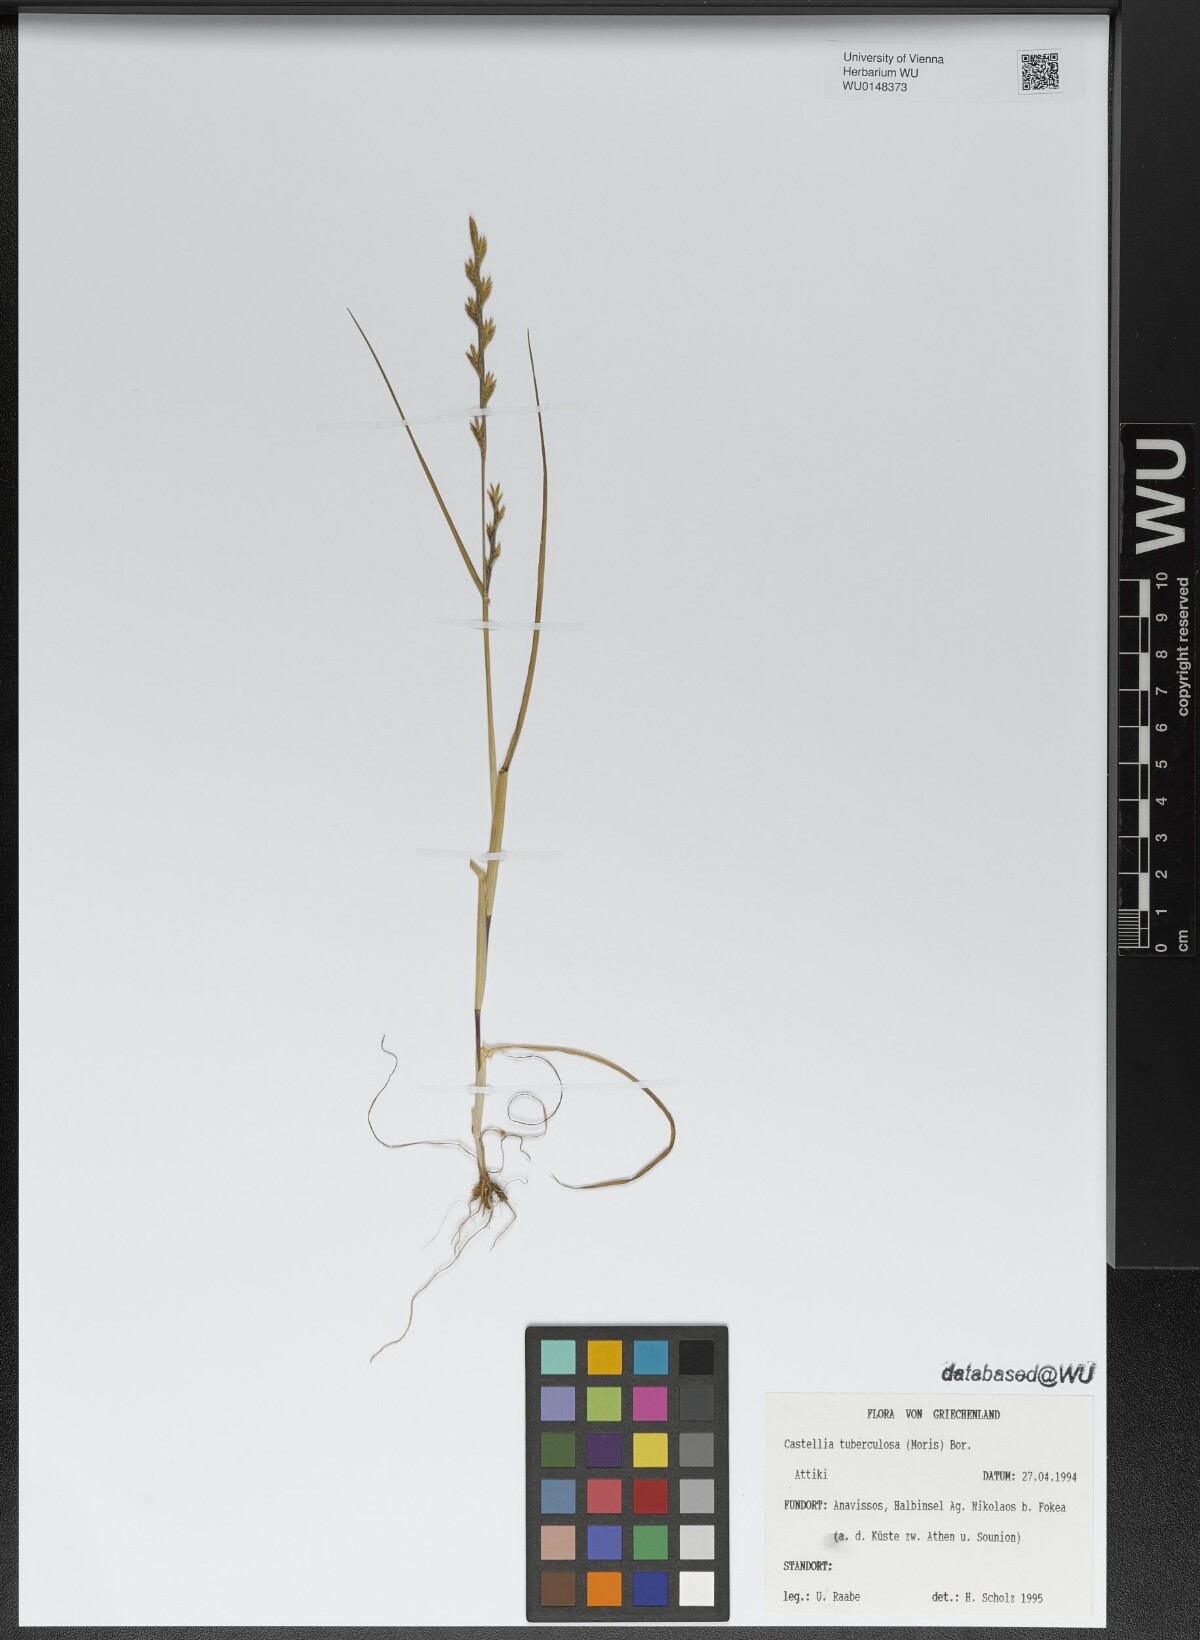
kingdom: Plantae
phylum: Tracheophyta
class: Liliopsida
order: Poales
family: Poaceae
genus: Castellia
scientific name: Castellia tuberculosa
